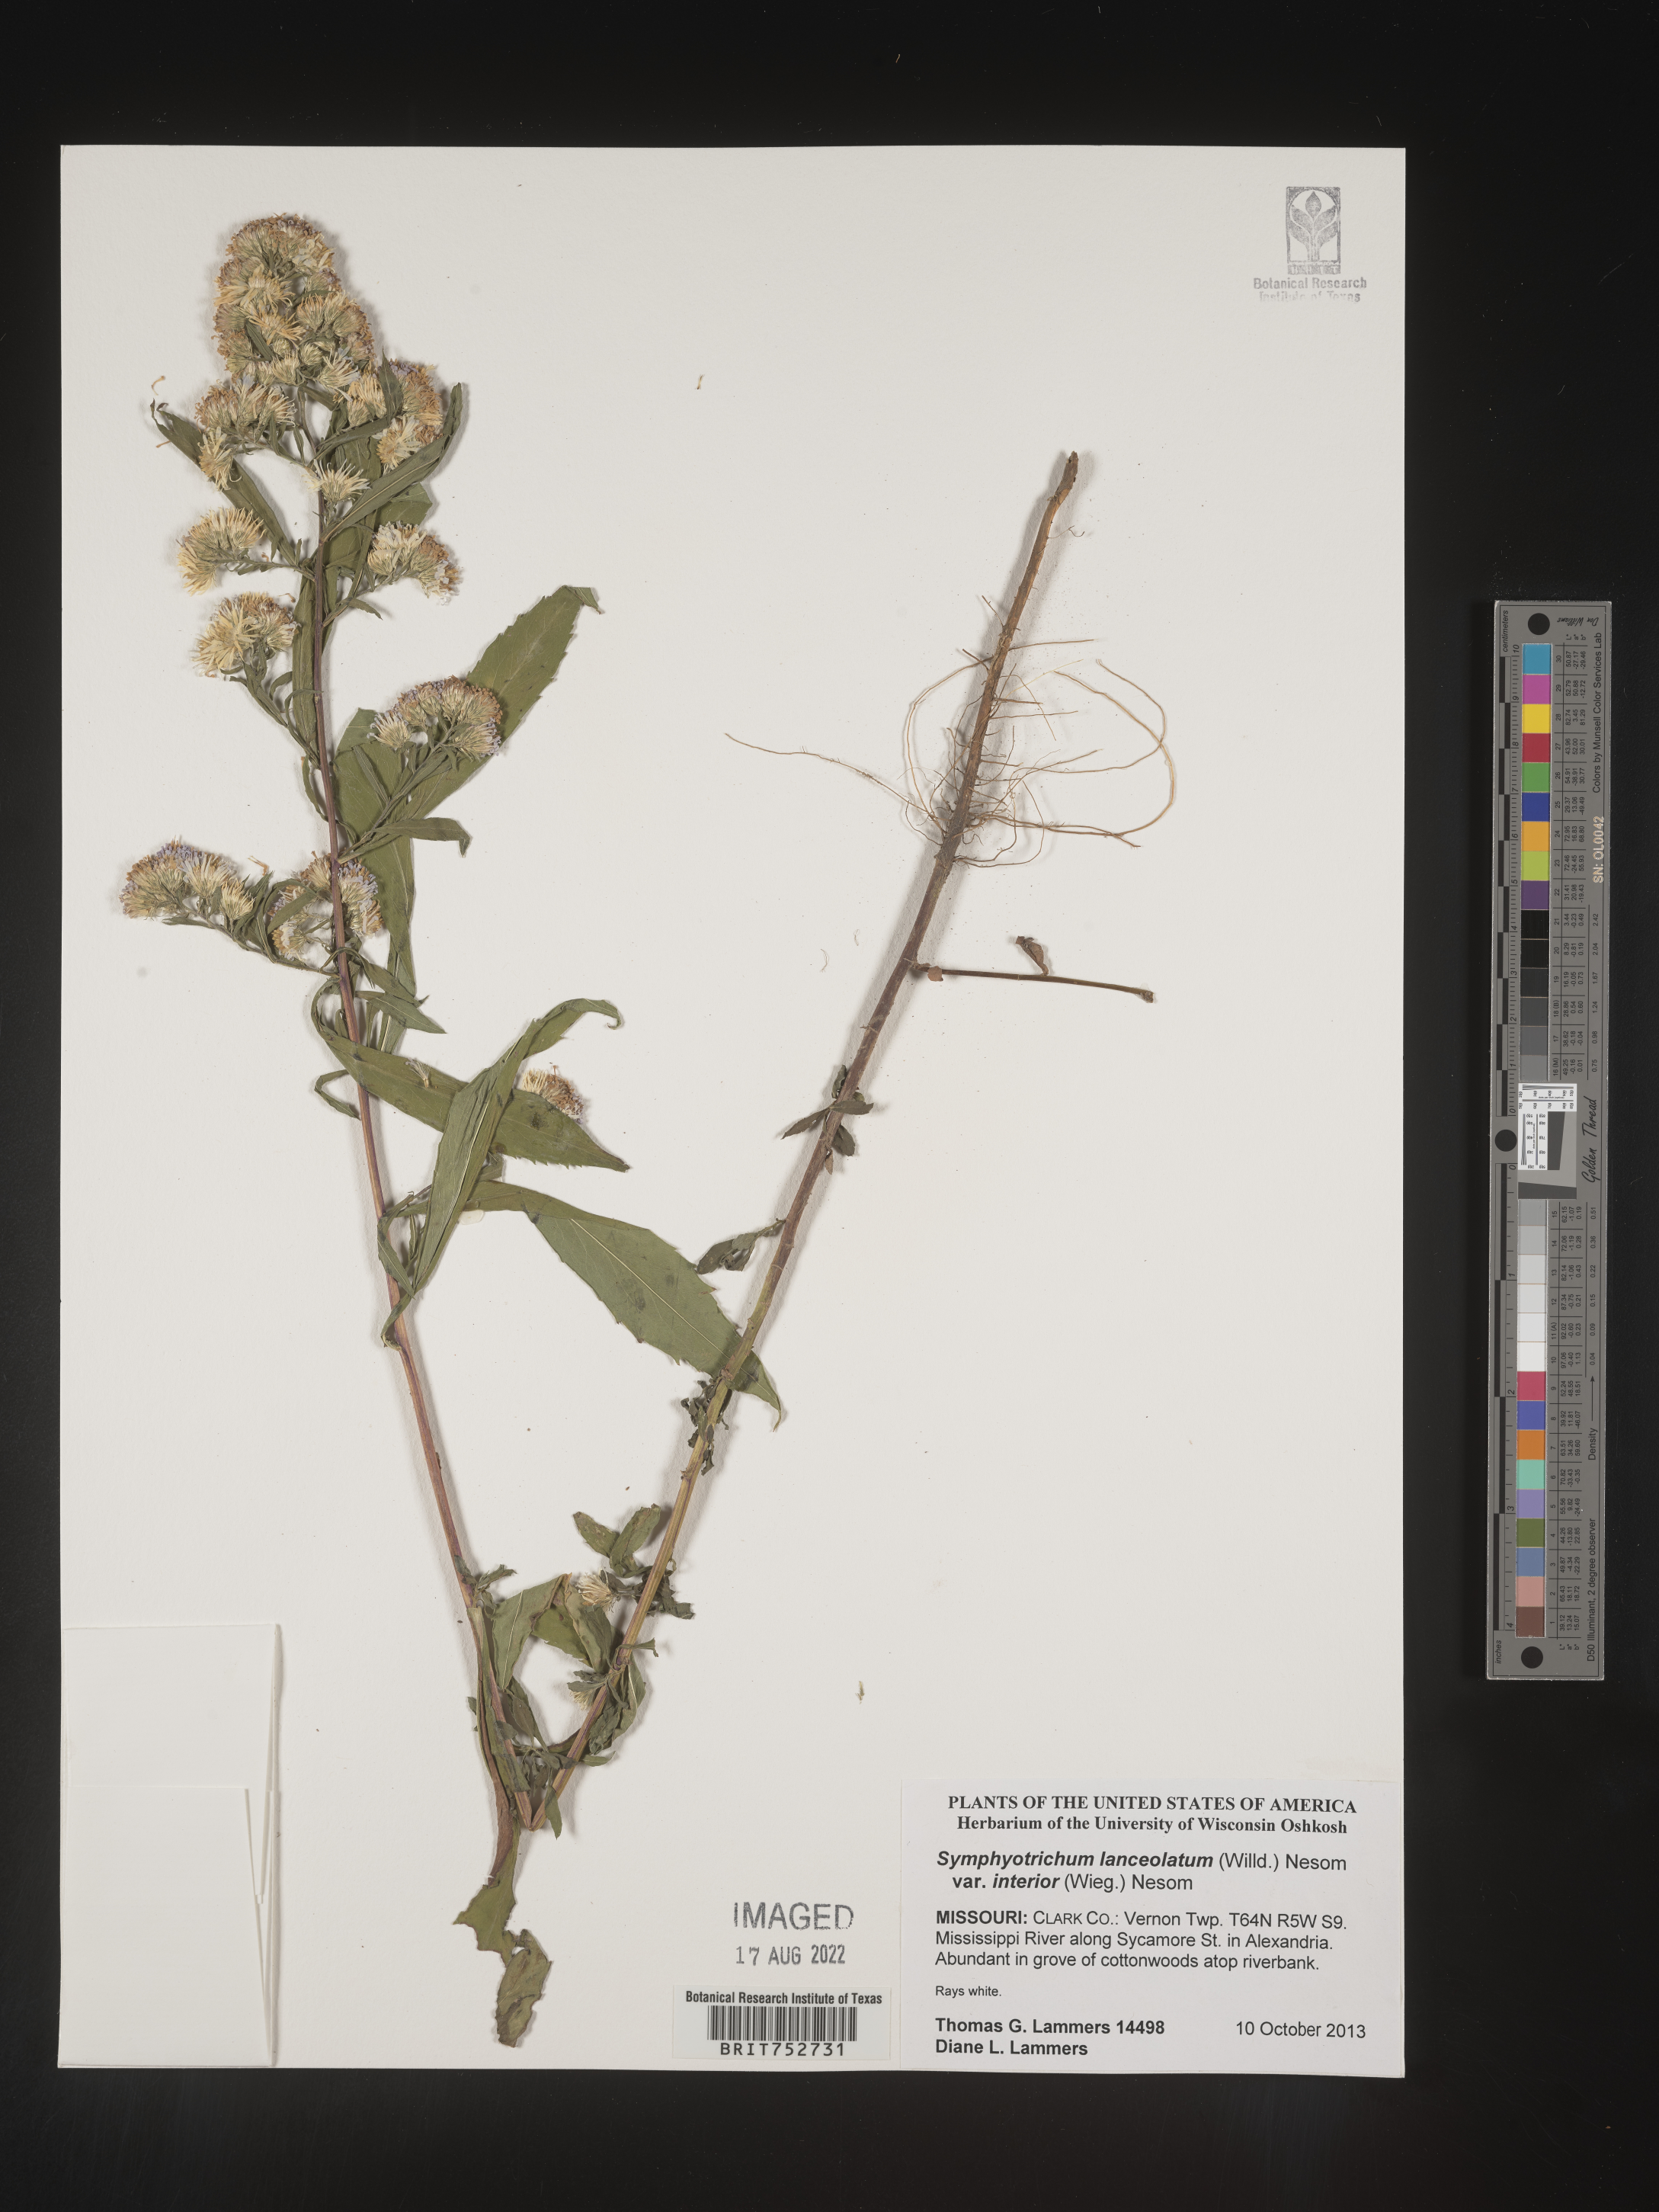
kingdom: Plantae
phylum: Tracheophyta
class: Magnoliopsida
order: Asterales
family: Asteraceae
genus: Symphyotrichum
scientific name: Symphyotrichum lanceolatum
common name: Panicled aster
